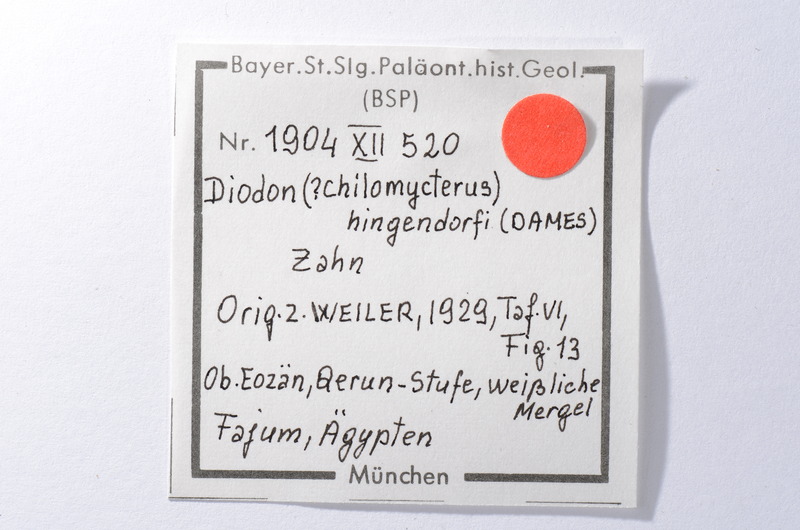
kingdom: Animalia
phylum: Chordata
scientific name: Chordata
